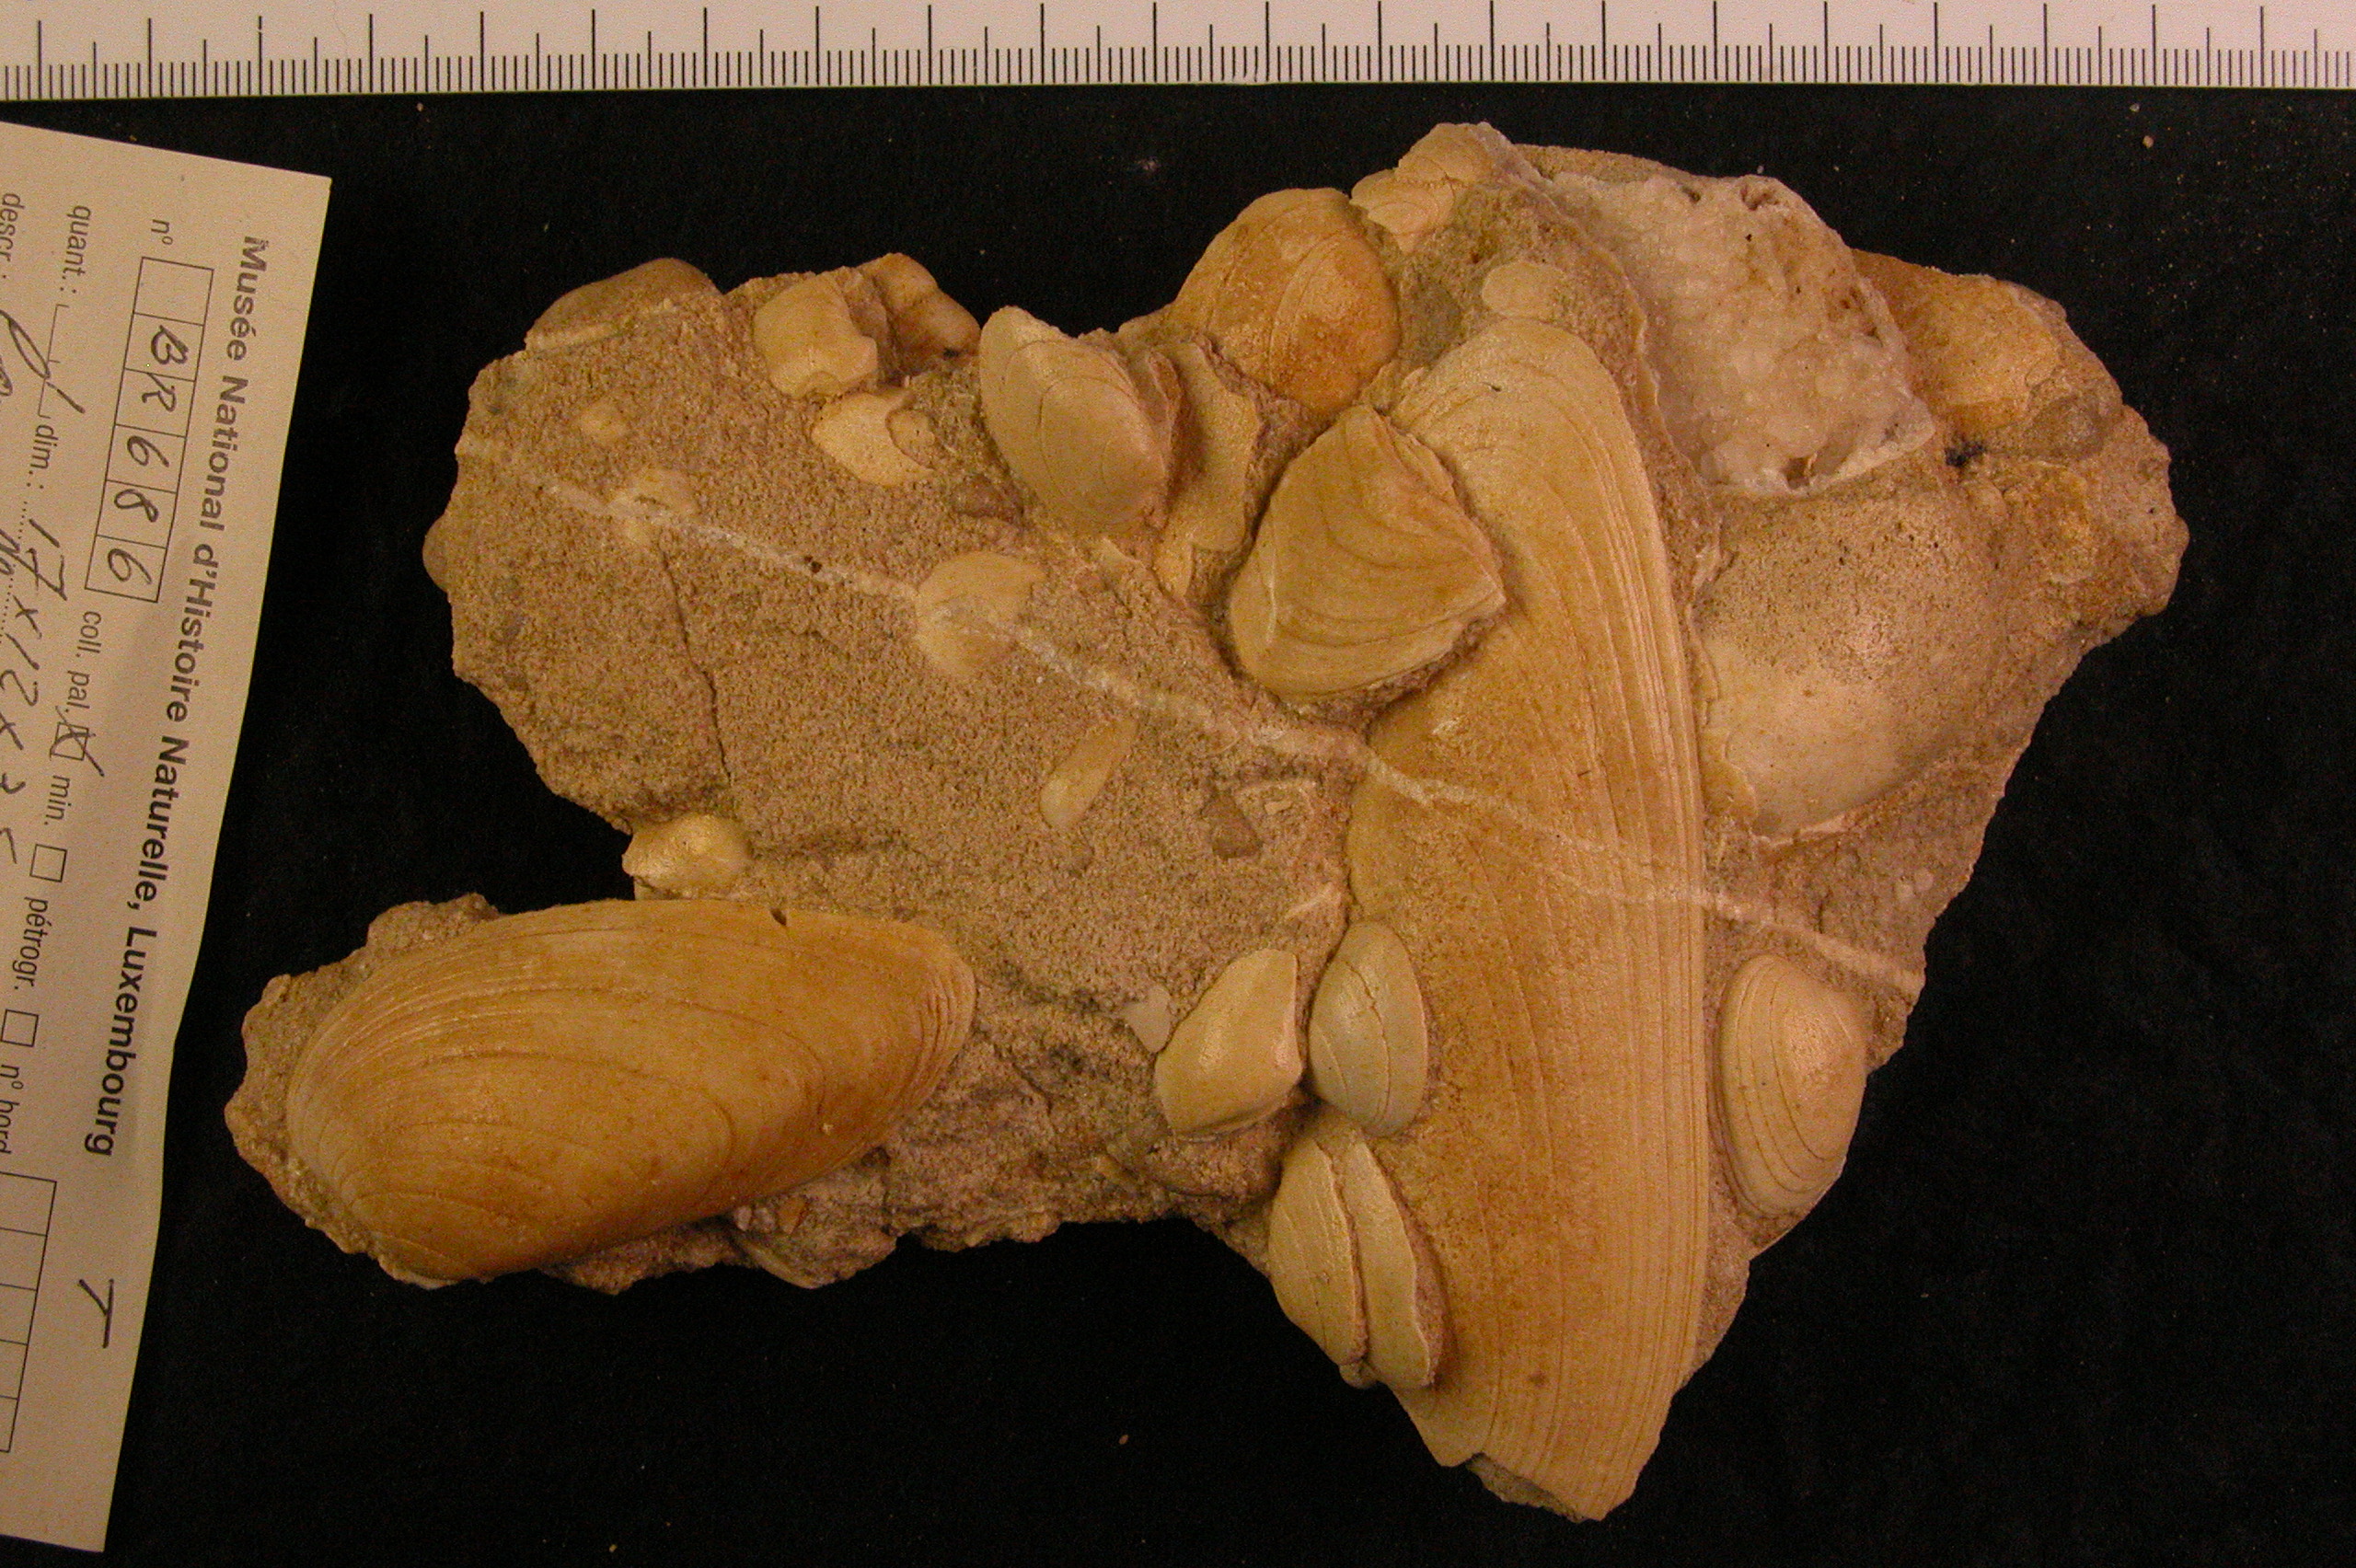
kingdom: Animalia
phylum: Mollusca
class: Bivalvia
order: Carditida
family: Cardiniidae
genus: Cardinia
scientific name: Cardinia
